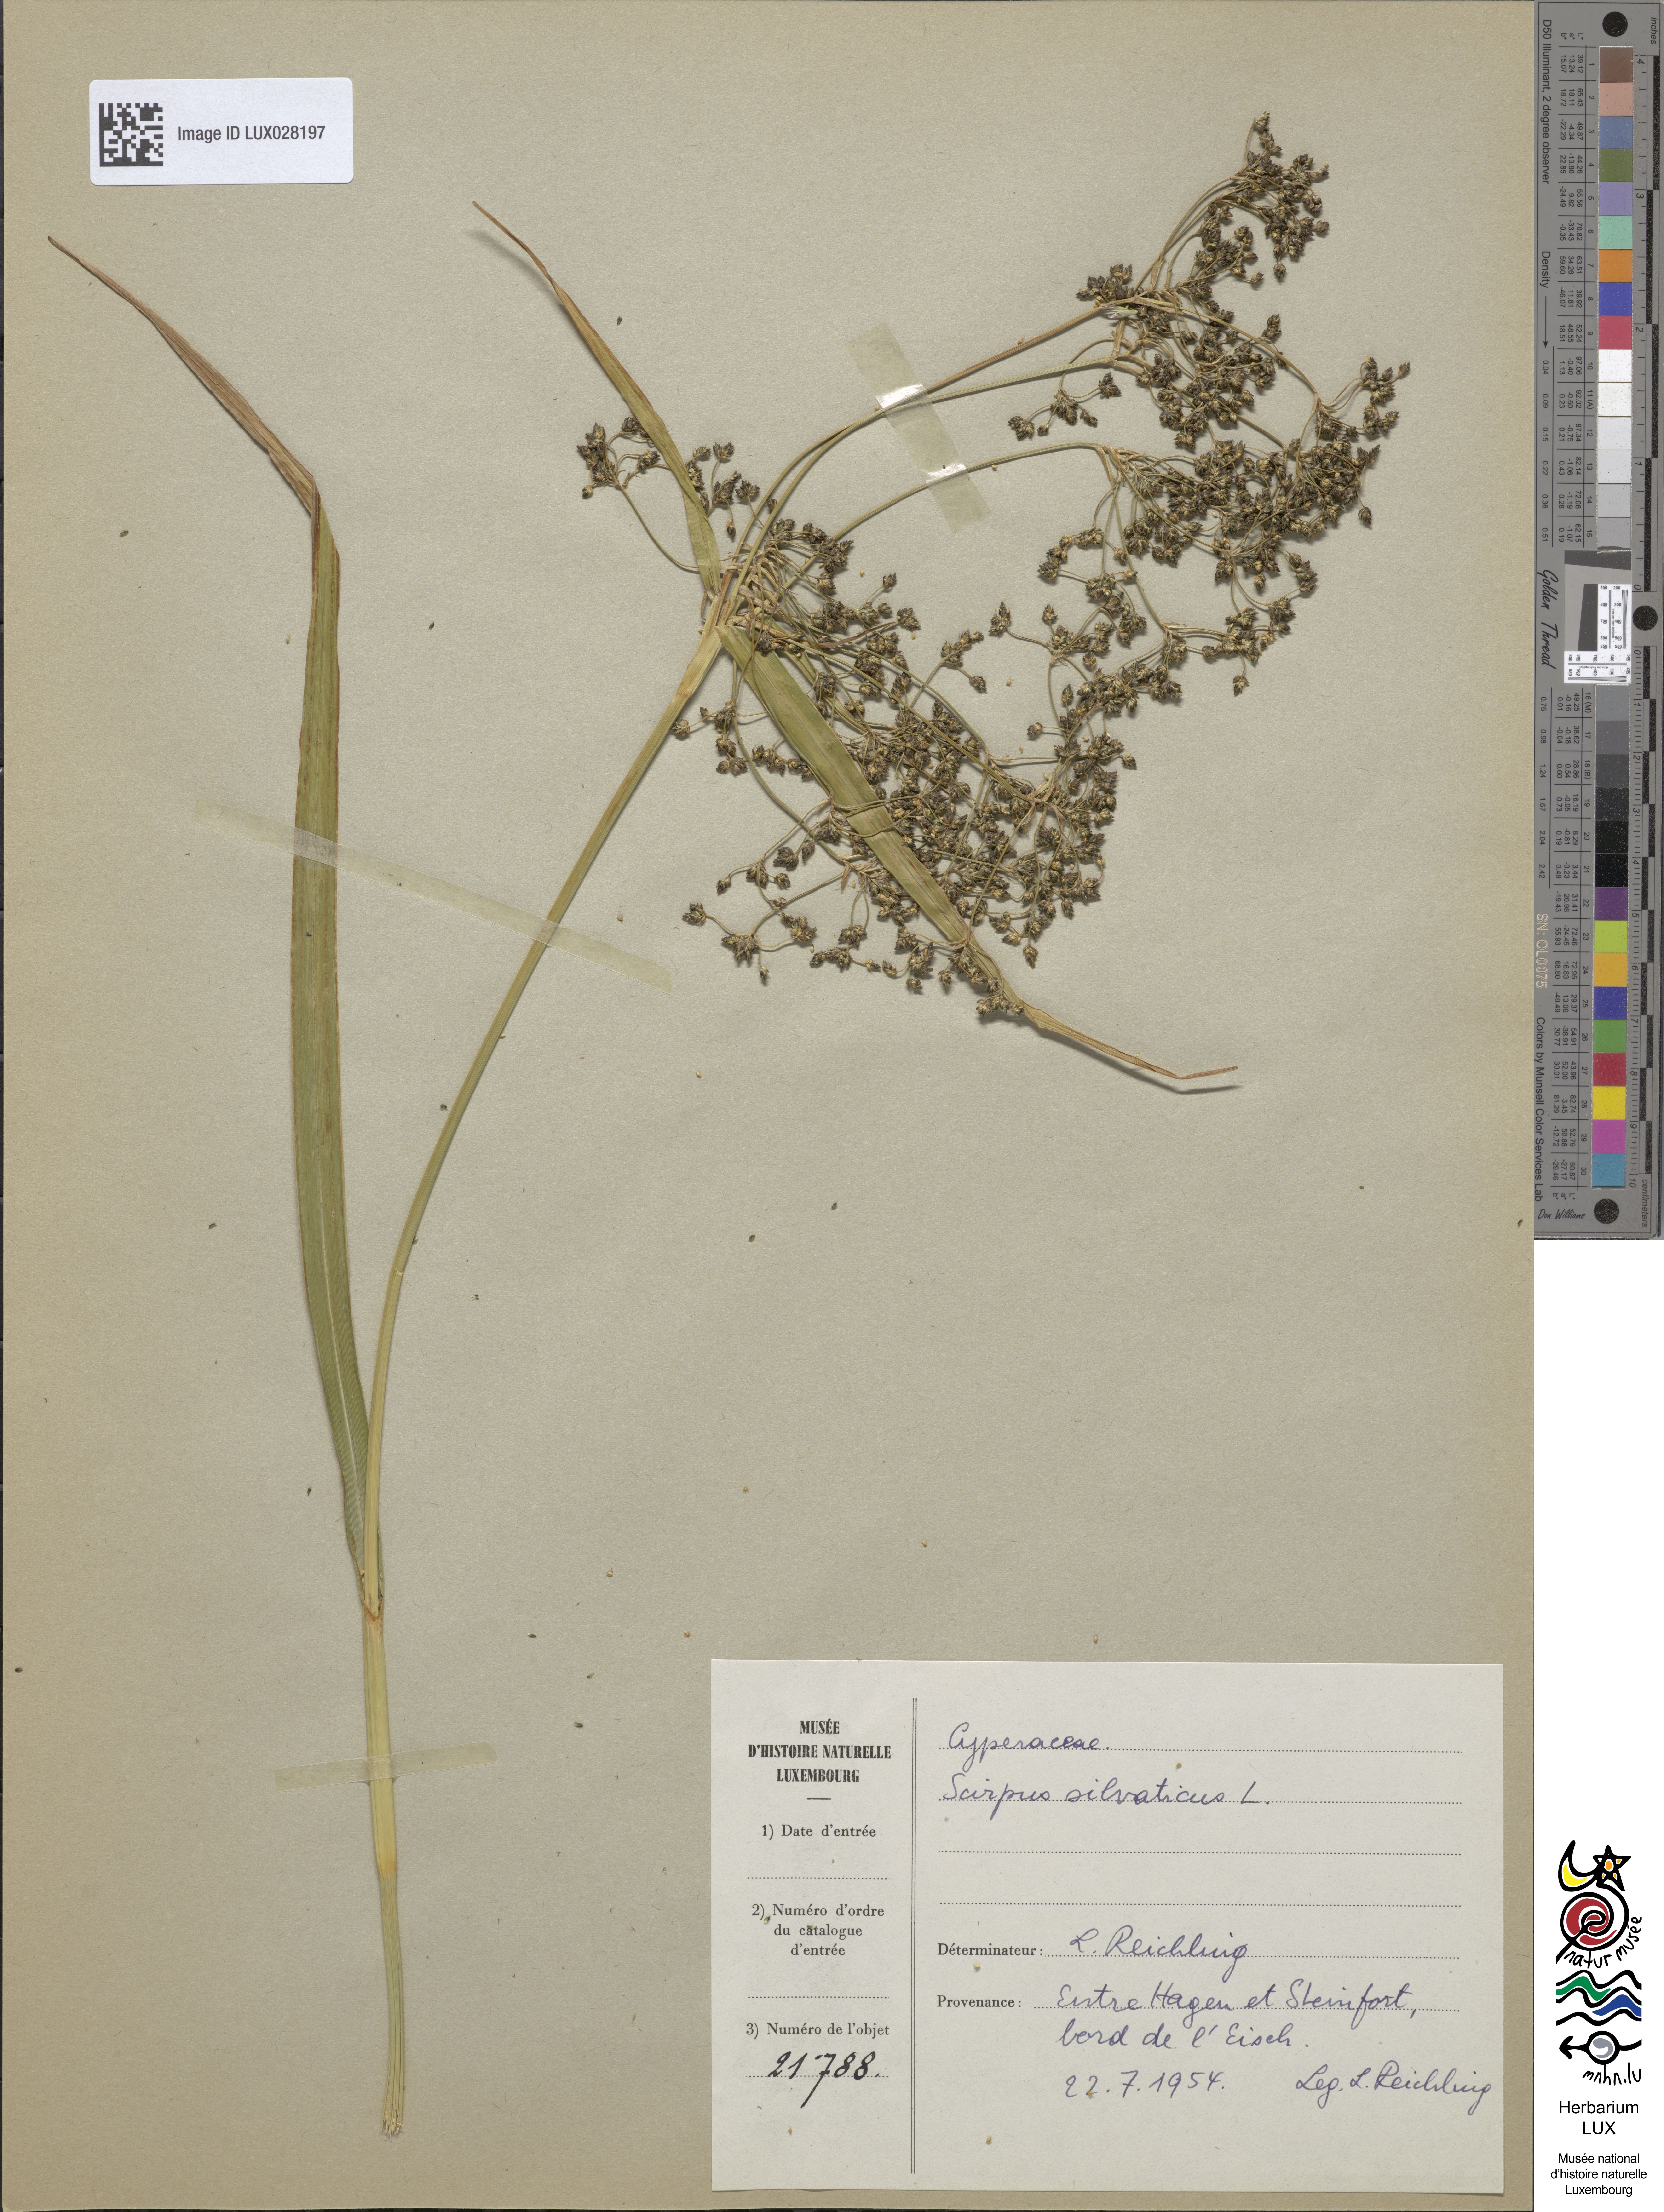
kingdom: Plantae
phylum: Tracheophyta
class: Liliopsida
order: Poales
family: Cyperaceae
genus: Scirpus
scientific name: Scirpus sylvaticus
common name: Wood club-rush
